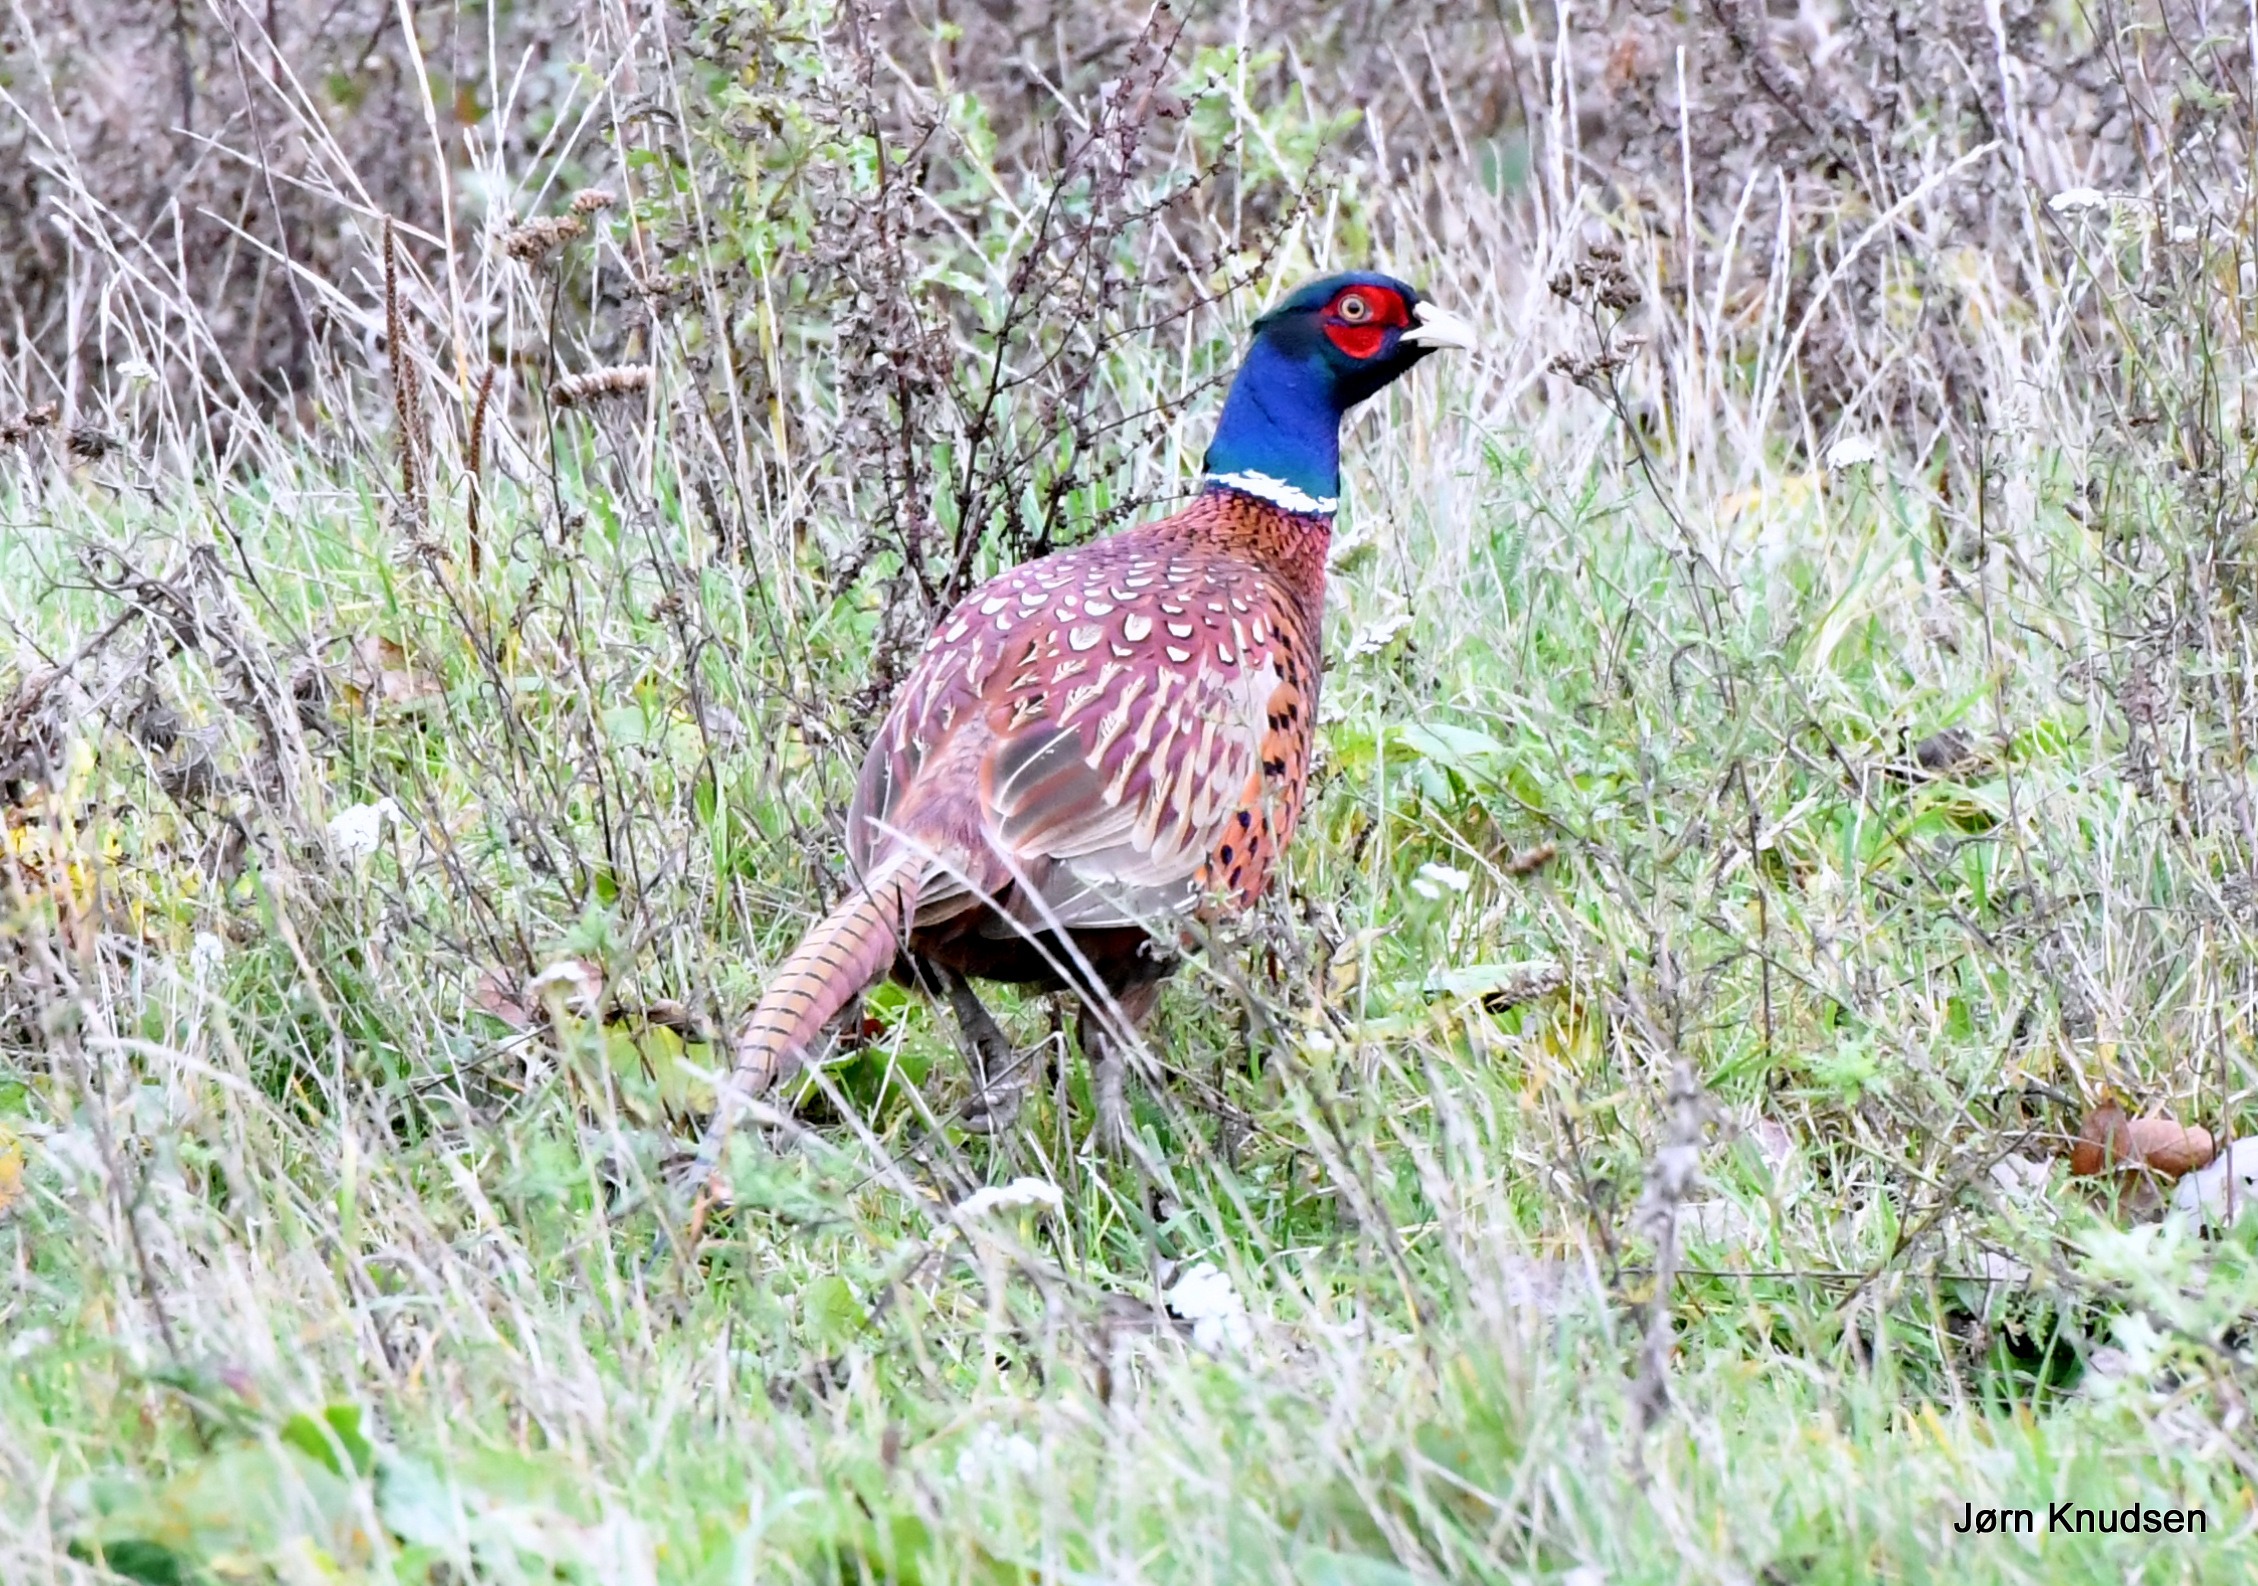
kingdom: Animalia
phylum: Chordata
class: Aves
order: Galliformes
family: Phasianidae
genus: Phasianus
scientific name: Phasianus colchicus
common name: Fasan
